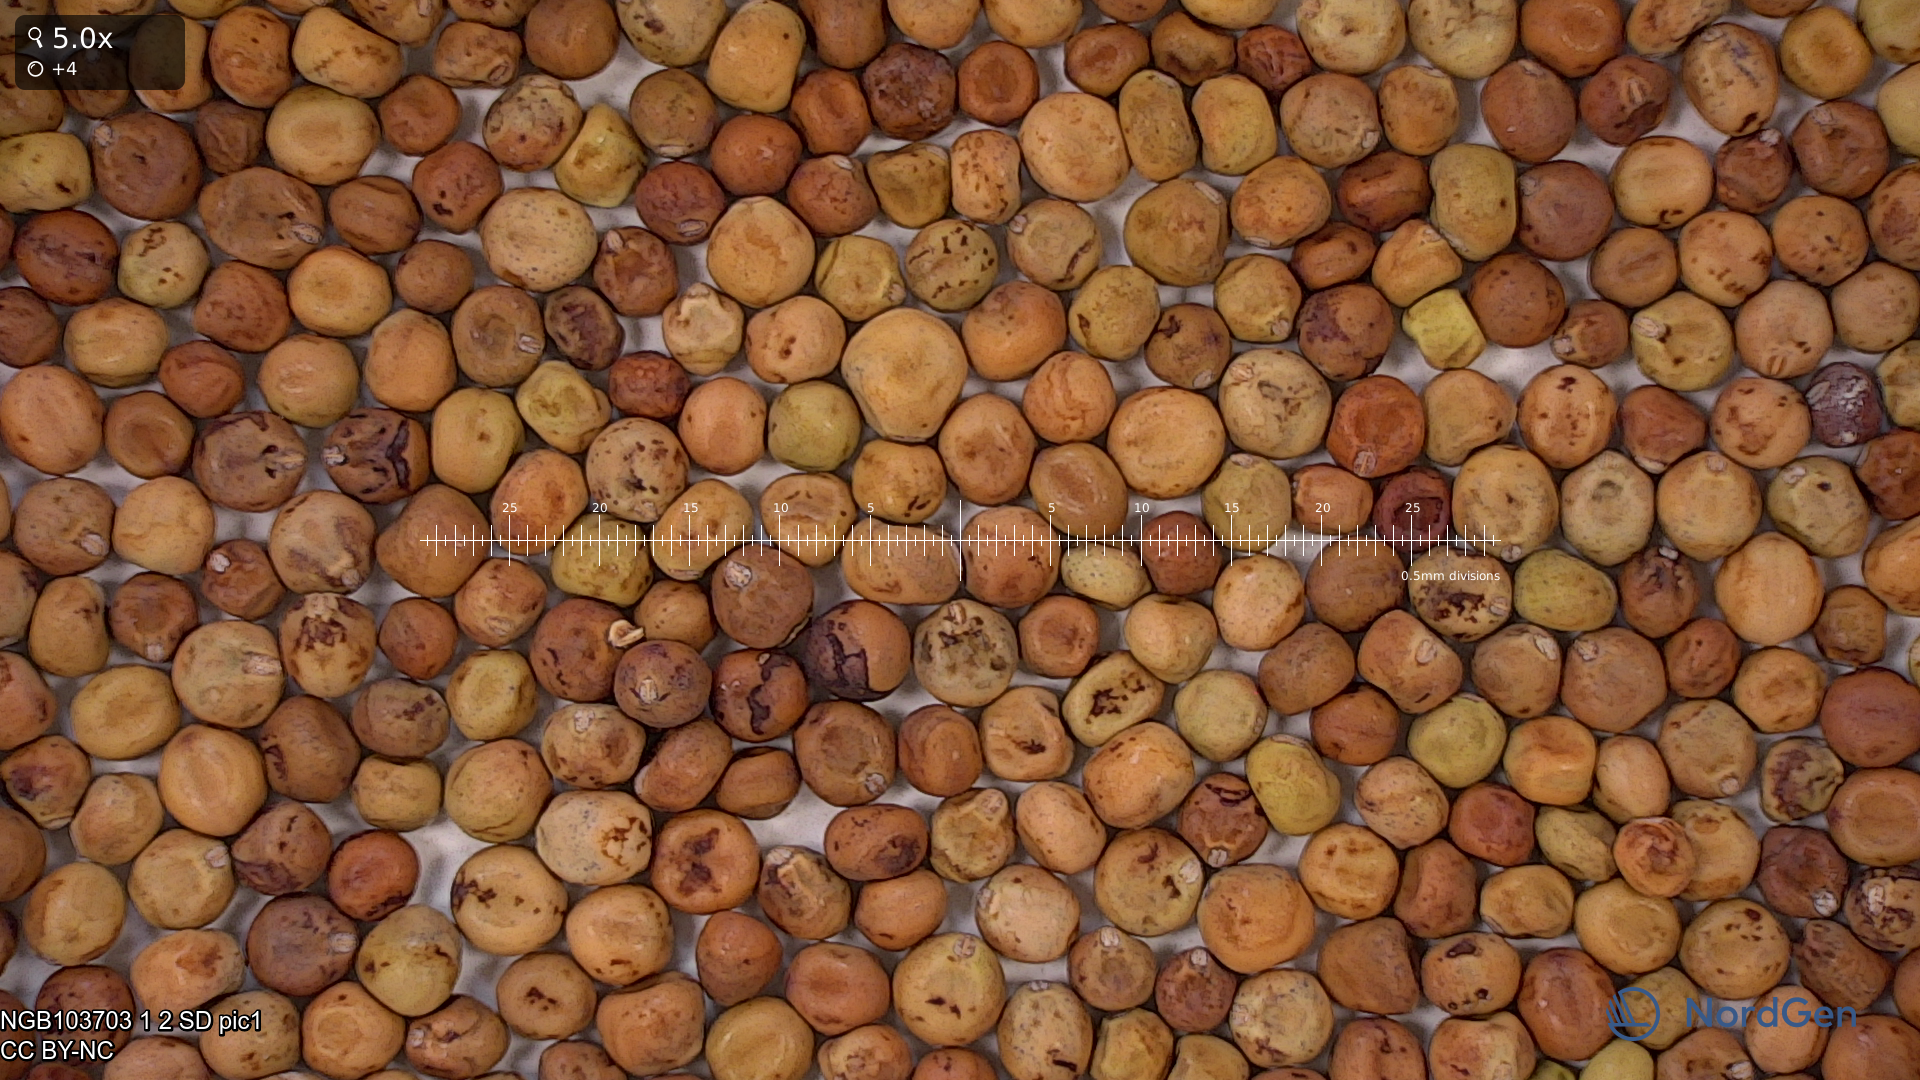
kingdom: Plantae
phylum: Tracheophyta
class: Magnoliopsida
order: Fabales
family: Fabaceae
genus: Lathyrus
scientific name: Lathyrus oleraceus
